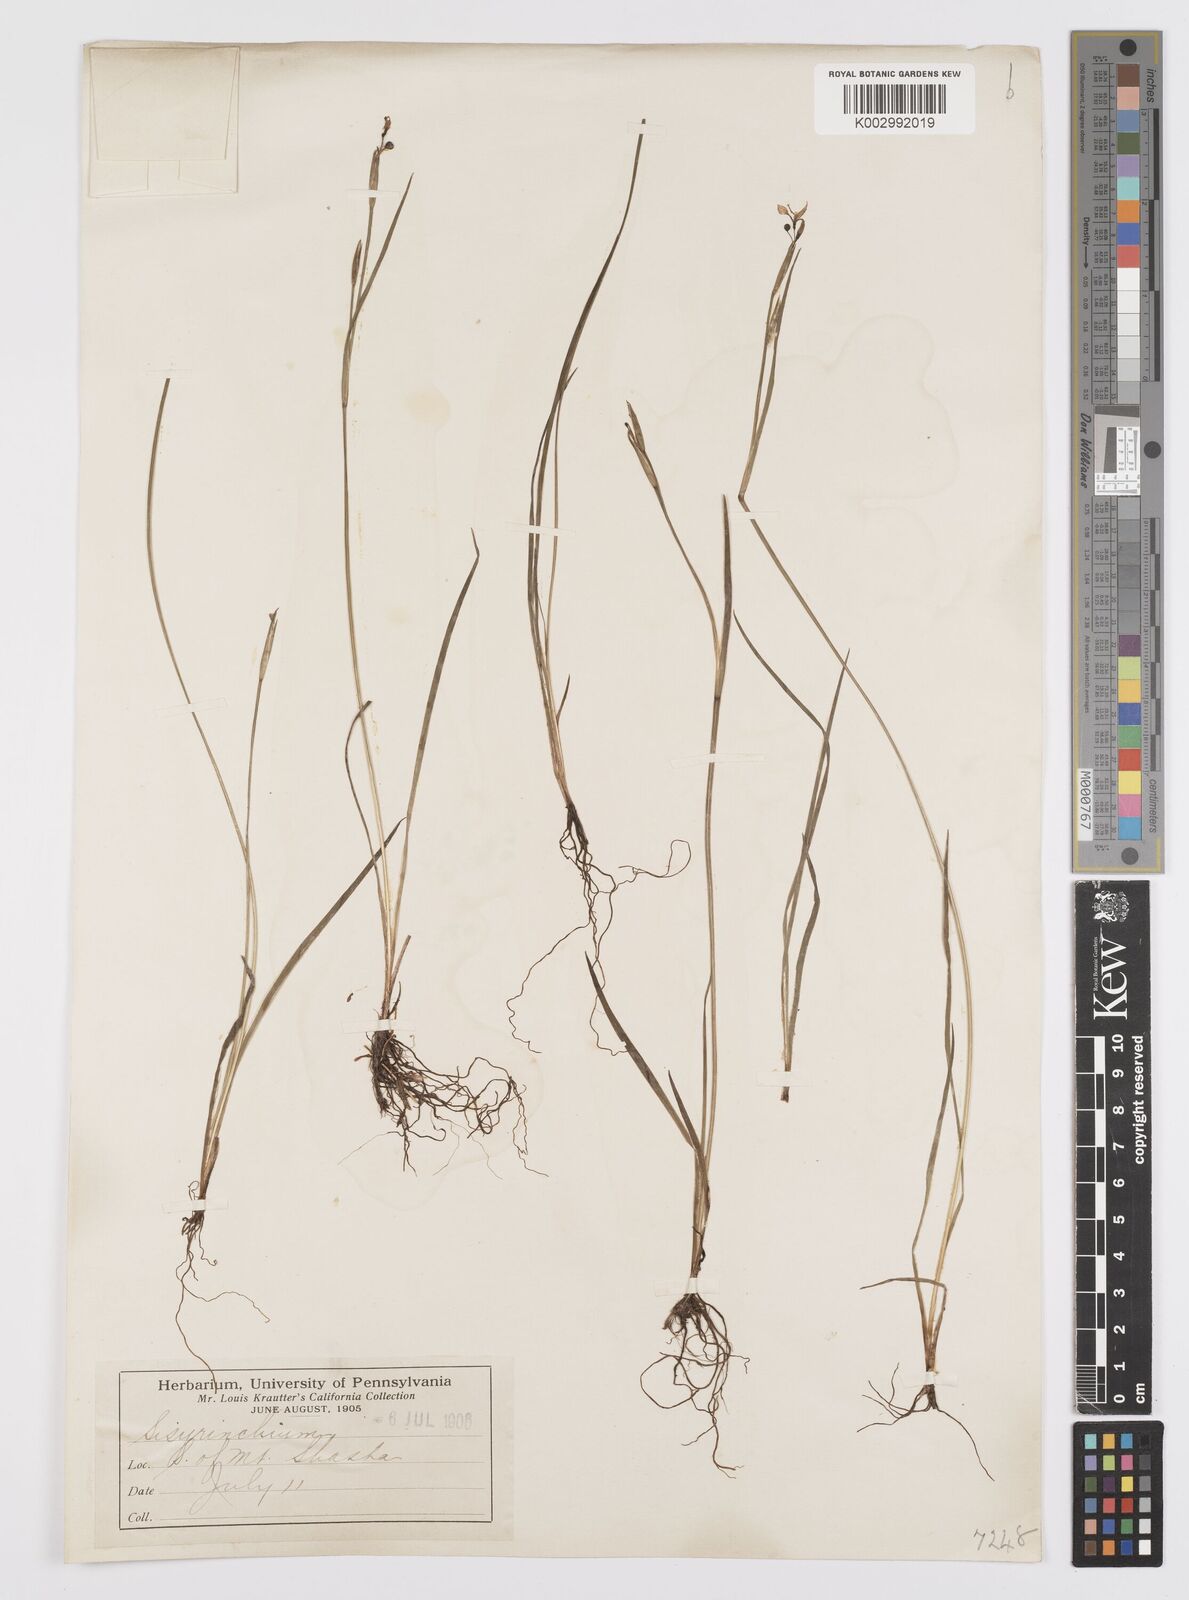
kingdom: Plantae
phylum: Tracheophyta
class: Liliopsida
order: Asparagales
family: Iridaceae
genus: Sisyrinchium
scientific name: Sisyrinchium
